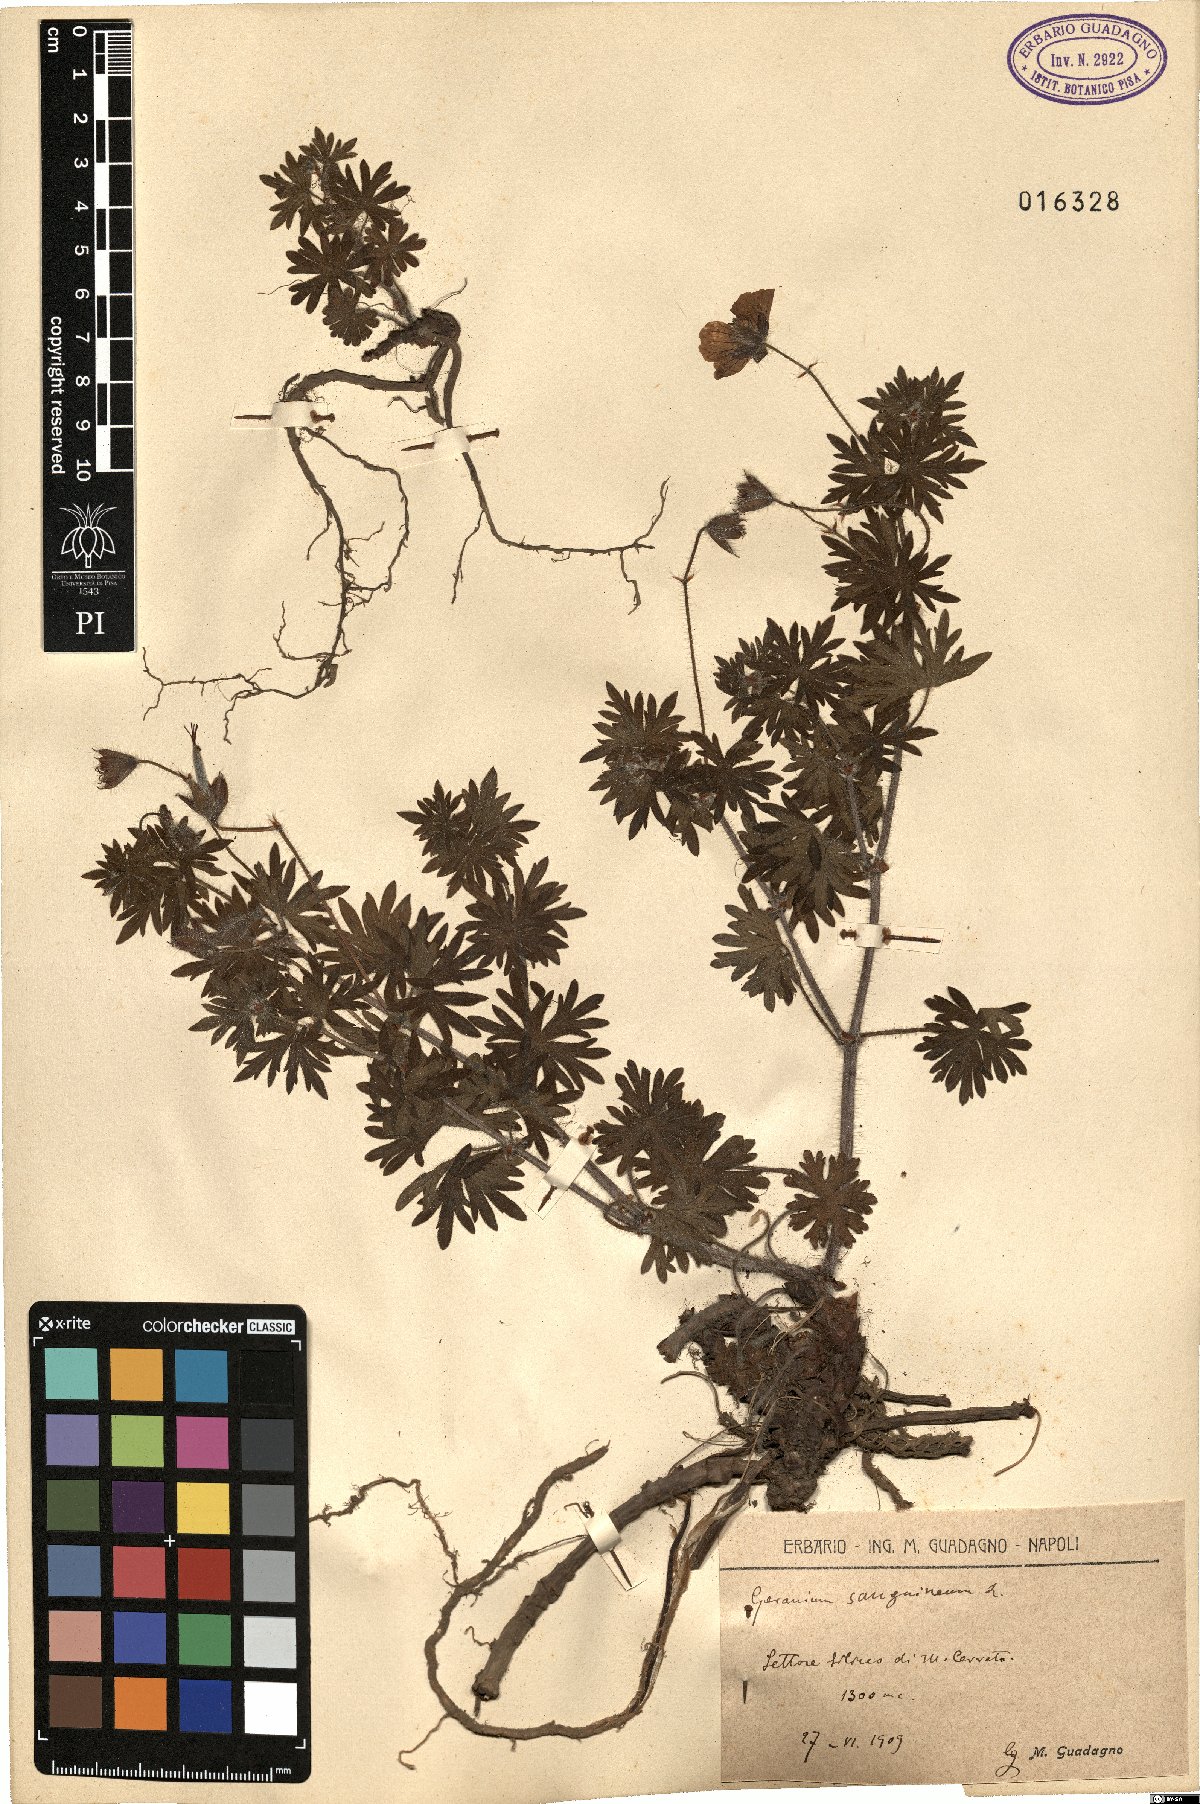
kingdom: Plantae
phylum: Tracheophyta
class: Magnoliopsida
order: Geraniales
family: Geraniaceae
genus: Geranium
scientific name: Geranium sanguineum
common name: Bloody crane's-bill
